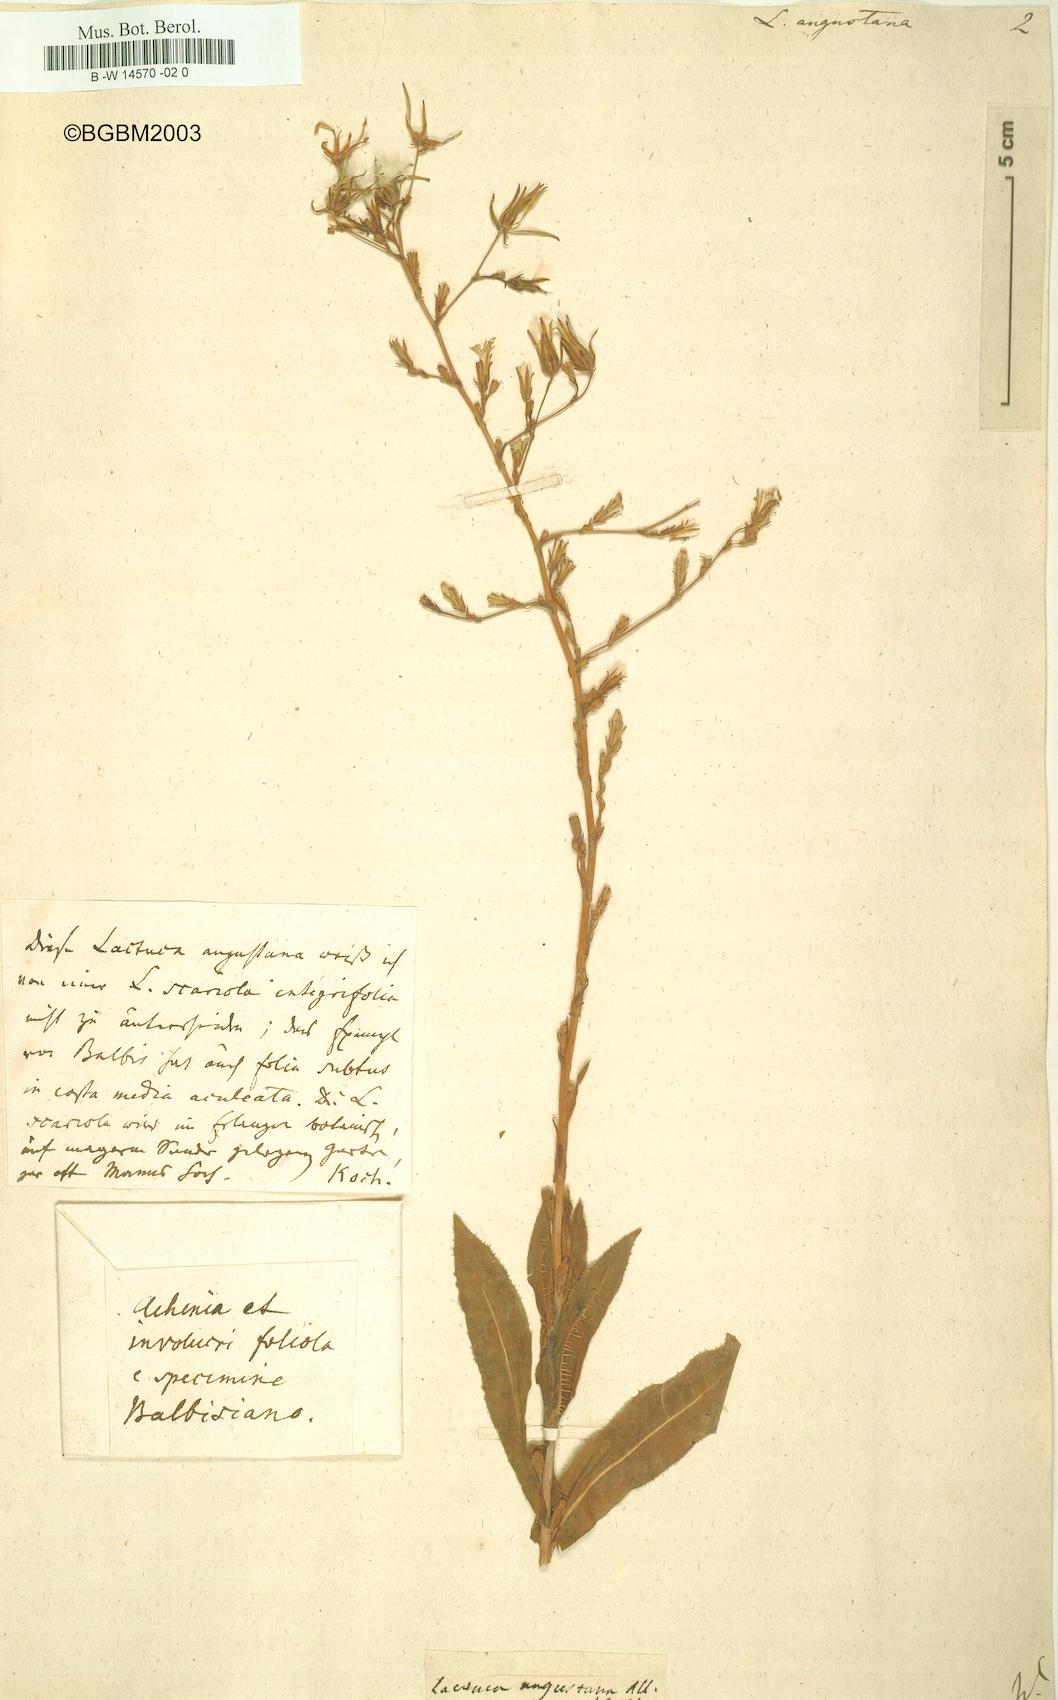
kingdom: Plantae
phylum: Tracheophyta
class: Magnoliopsida
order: Asterales
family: Asteraceae
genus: Lactuca
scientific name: Lactuca serriola
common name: Prickly lettuce
